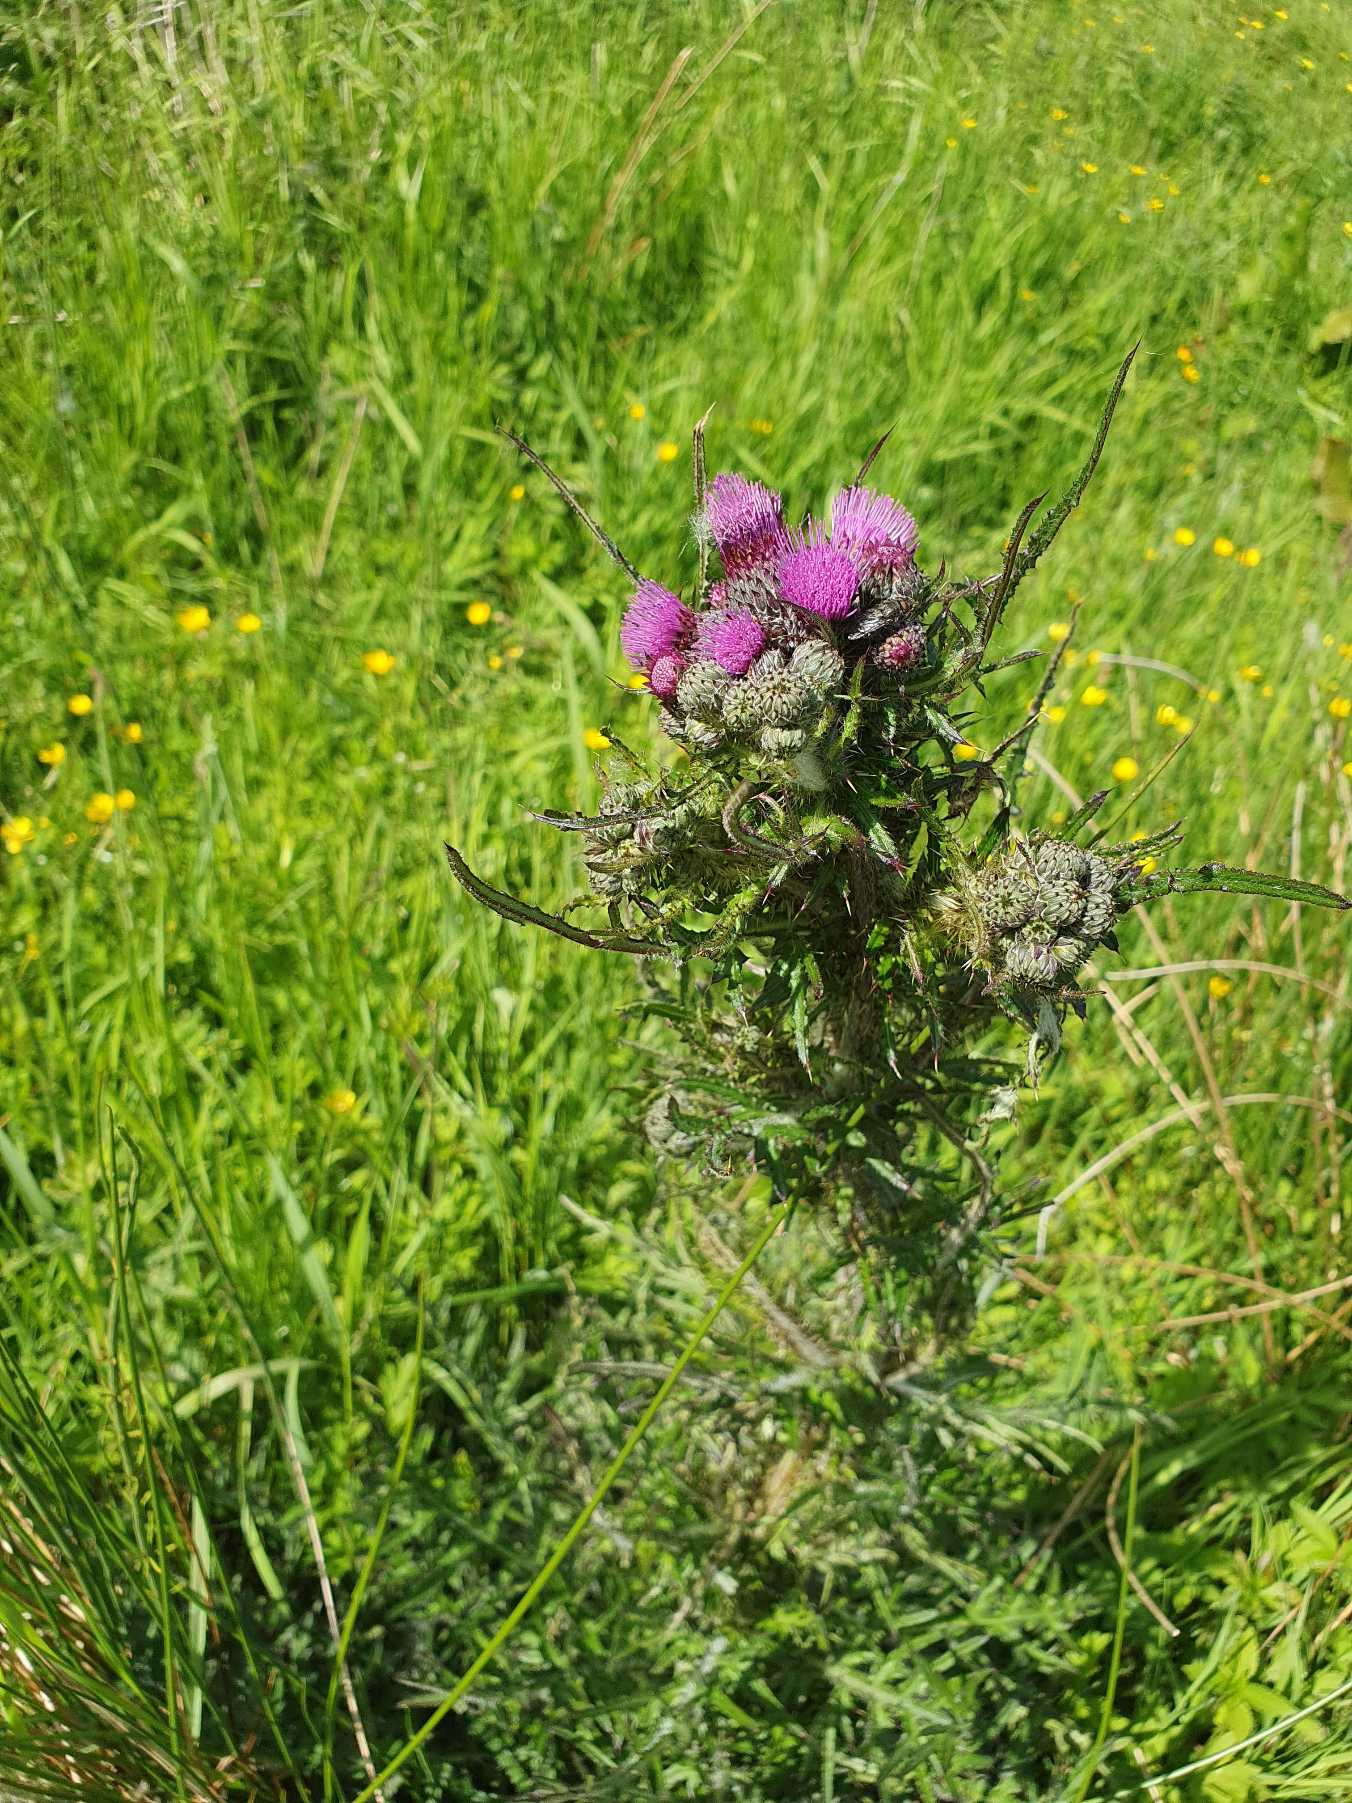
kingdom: Plantae
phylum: Tracheophyta
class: Magnoliopsida
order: Asterales
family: Asteraceae
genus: Cirsium
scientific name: Cirsium palustre
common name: Kær-tidsel
